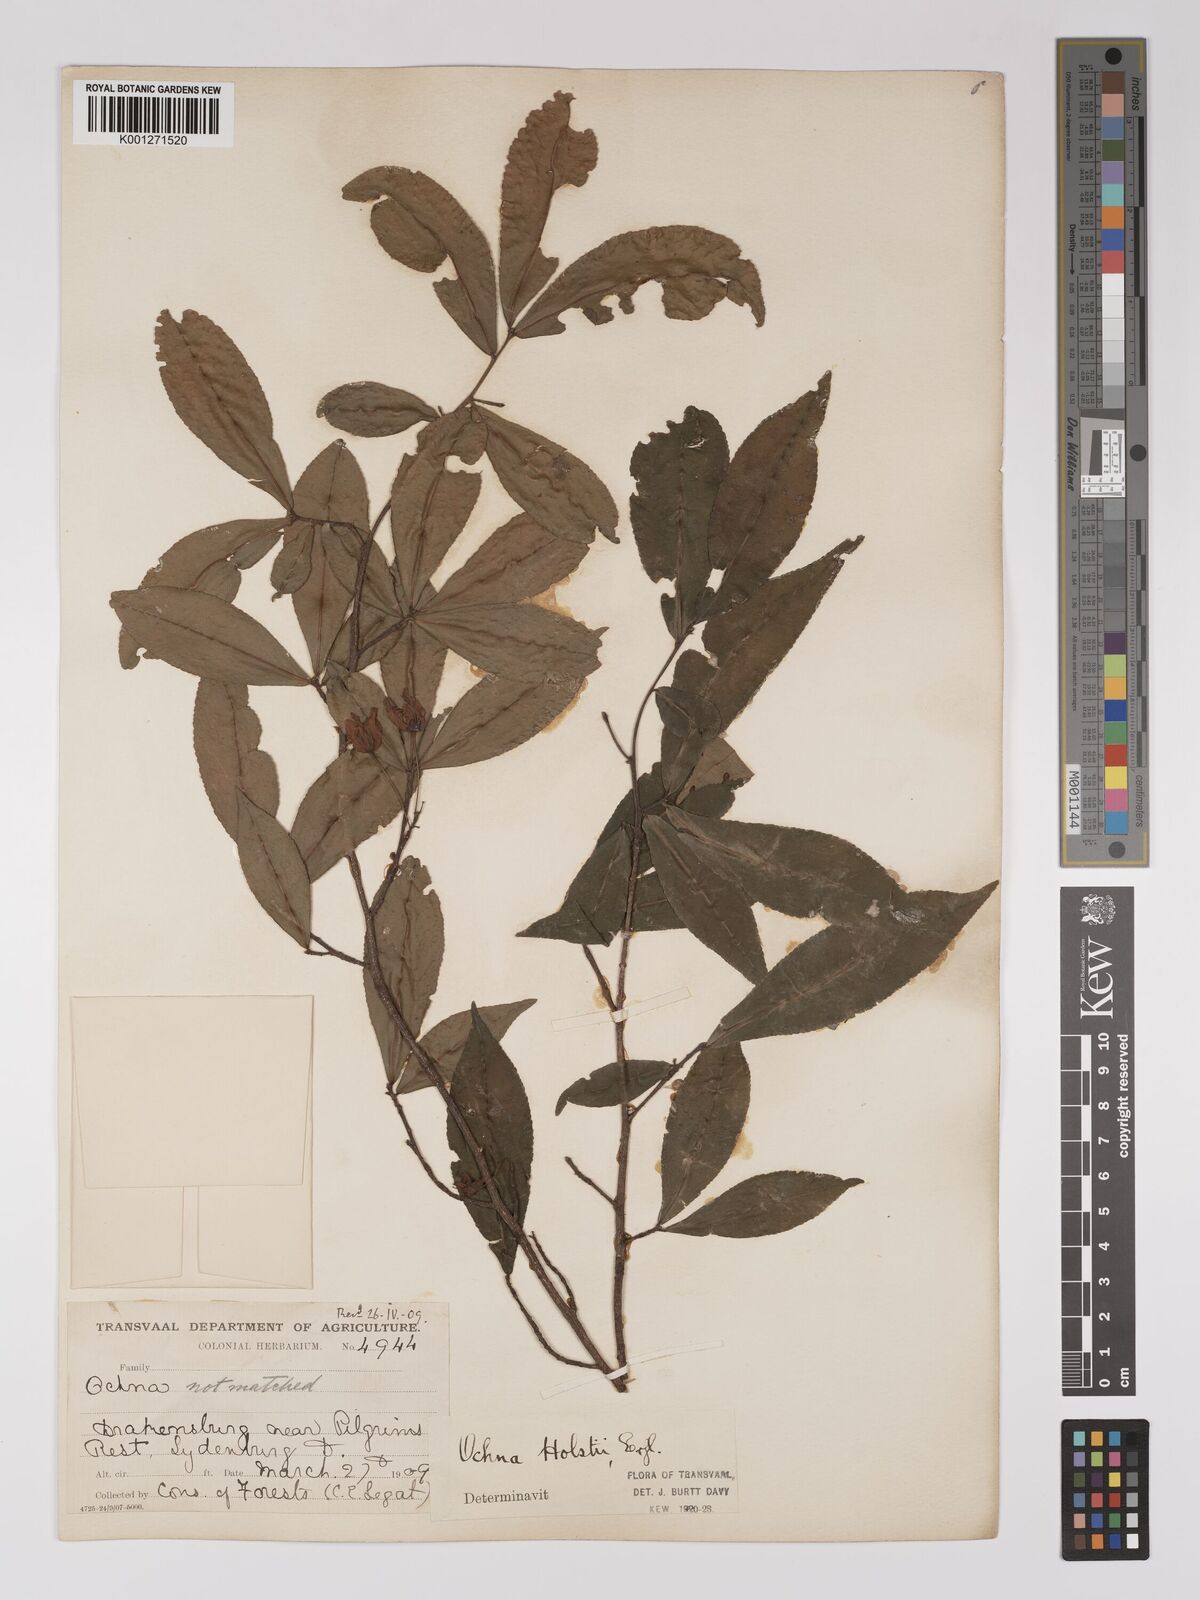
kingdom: Plantae
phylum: Tracheophyta
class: Magnoliopsida
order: Malpighiales
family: Ochnaceae
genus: Ochna
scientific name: Ochna holstii
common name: Red ironwood
